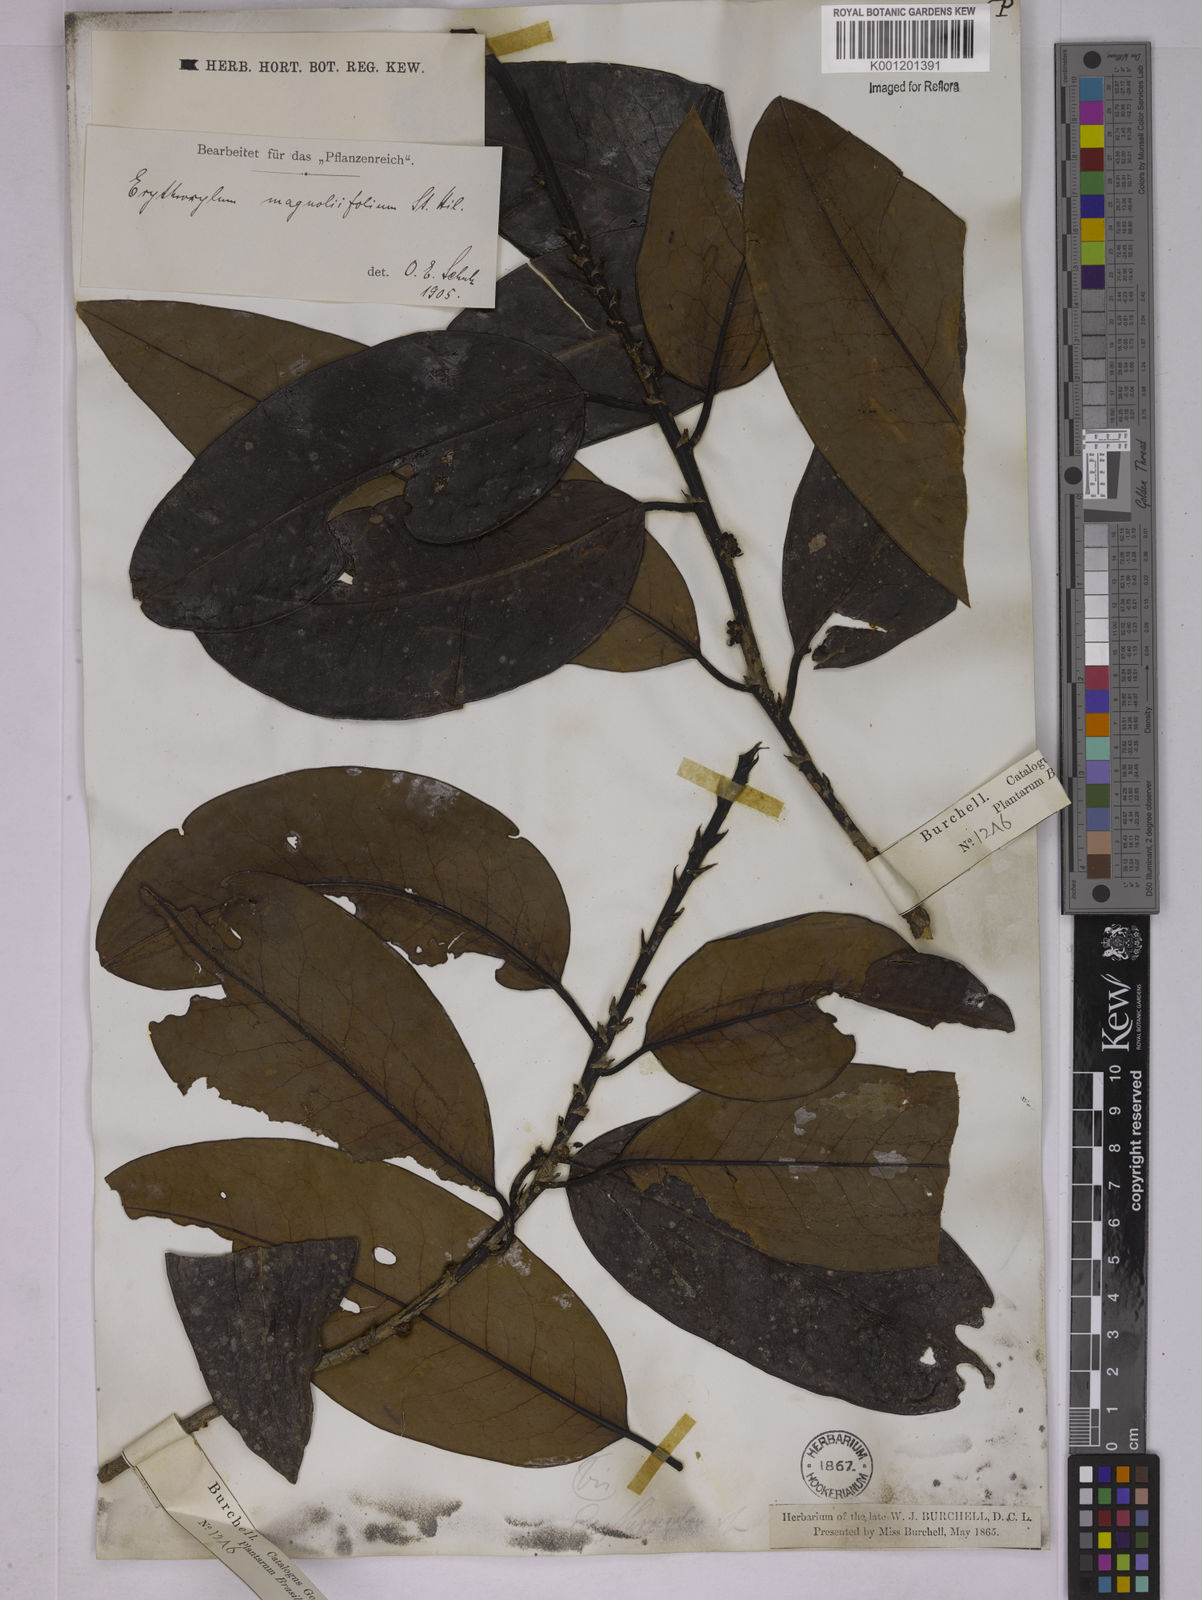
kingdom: Plantae
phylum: Tracheophyta
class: Magnoliopsida
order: Malpighiales
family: Erythroxylaceae
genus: Erythroxylum
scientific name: Erythroxylum magnoliifolium
